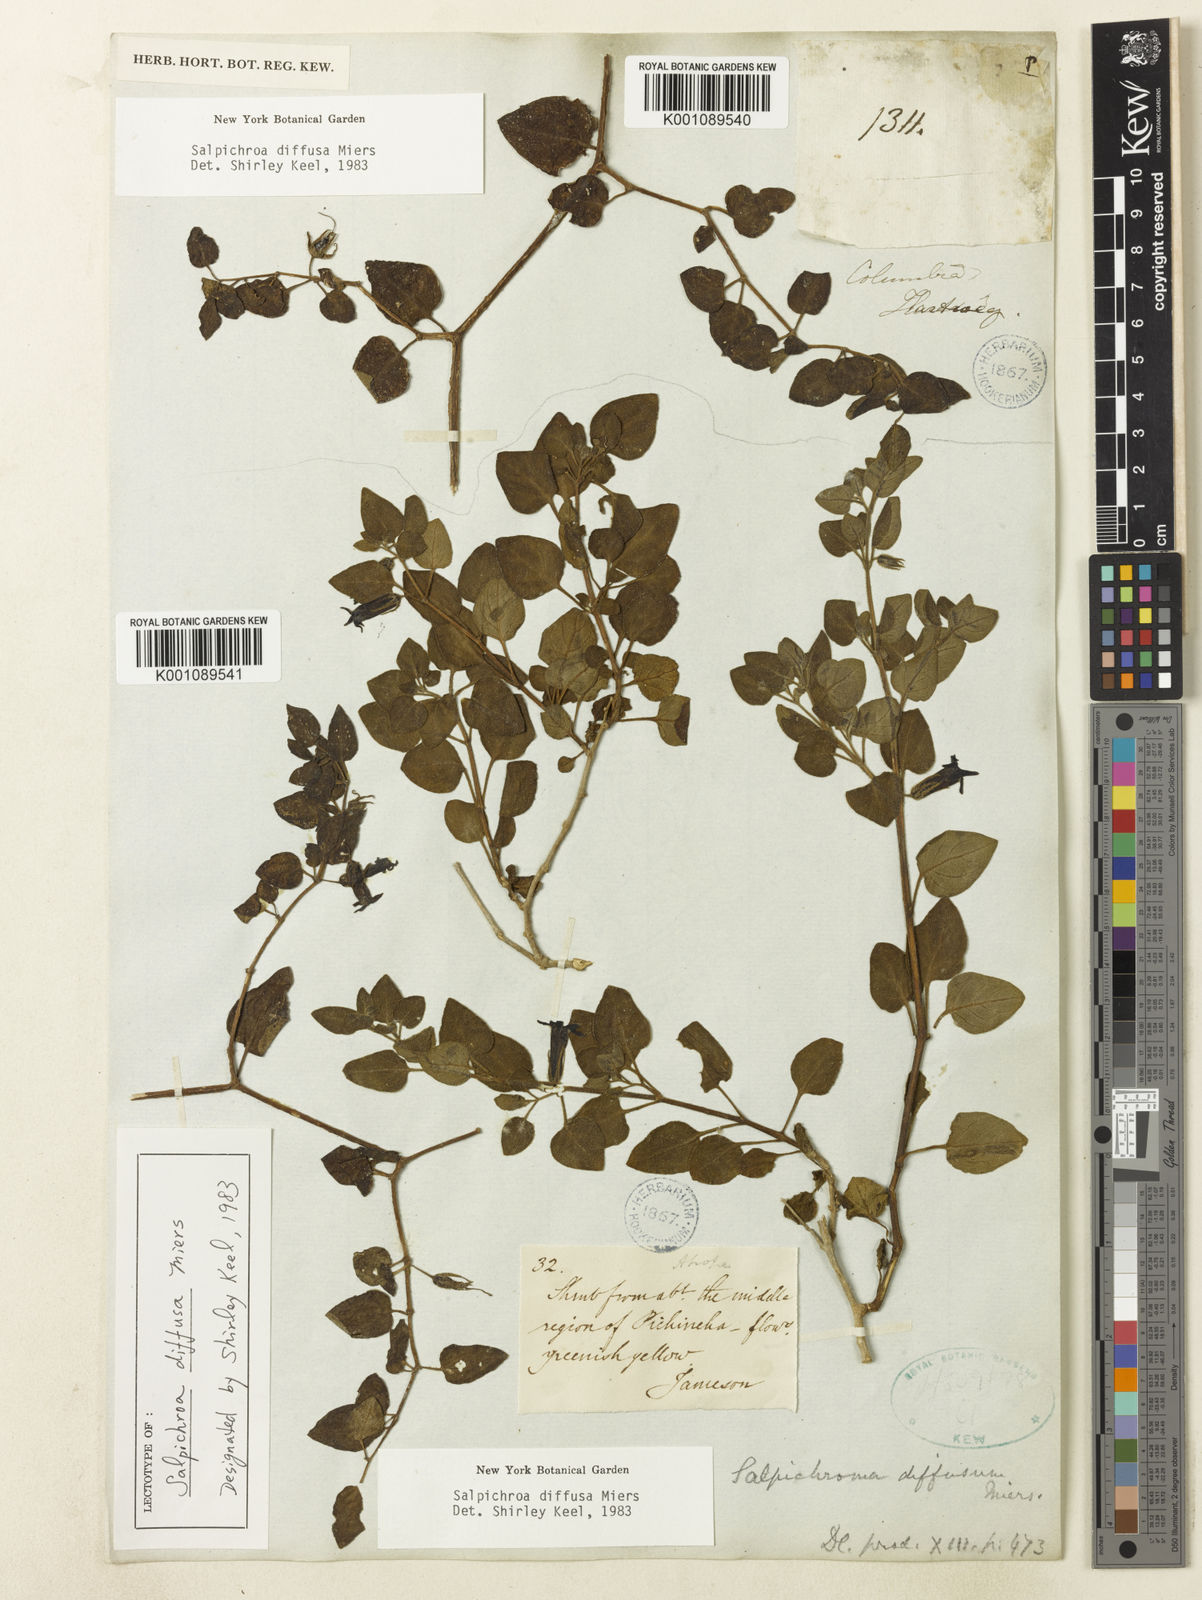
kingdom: Plantae
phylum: Tracheophyta
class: Magnoliopsida
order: Solanales
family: Solanaceae
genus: Salpichroa
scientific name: Salpichroa
